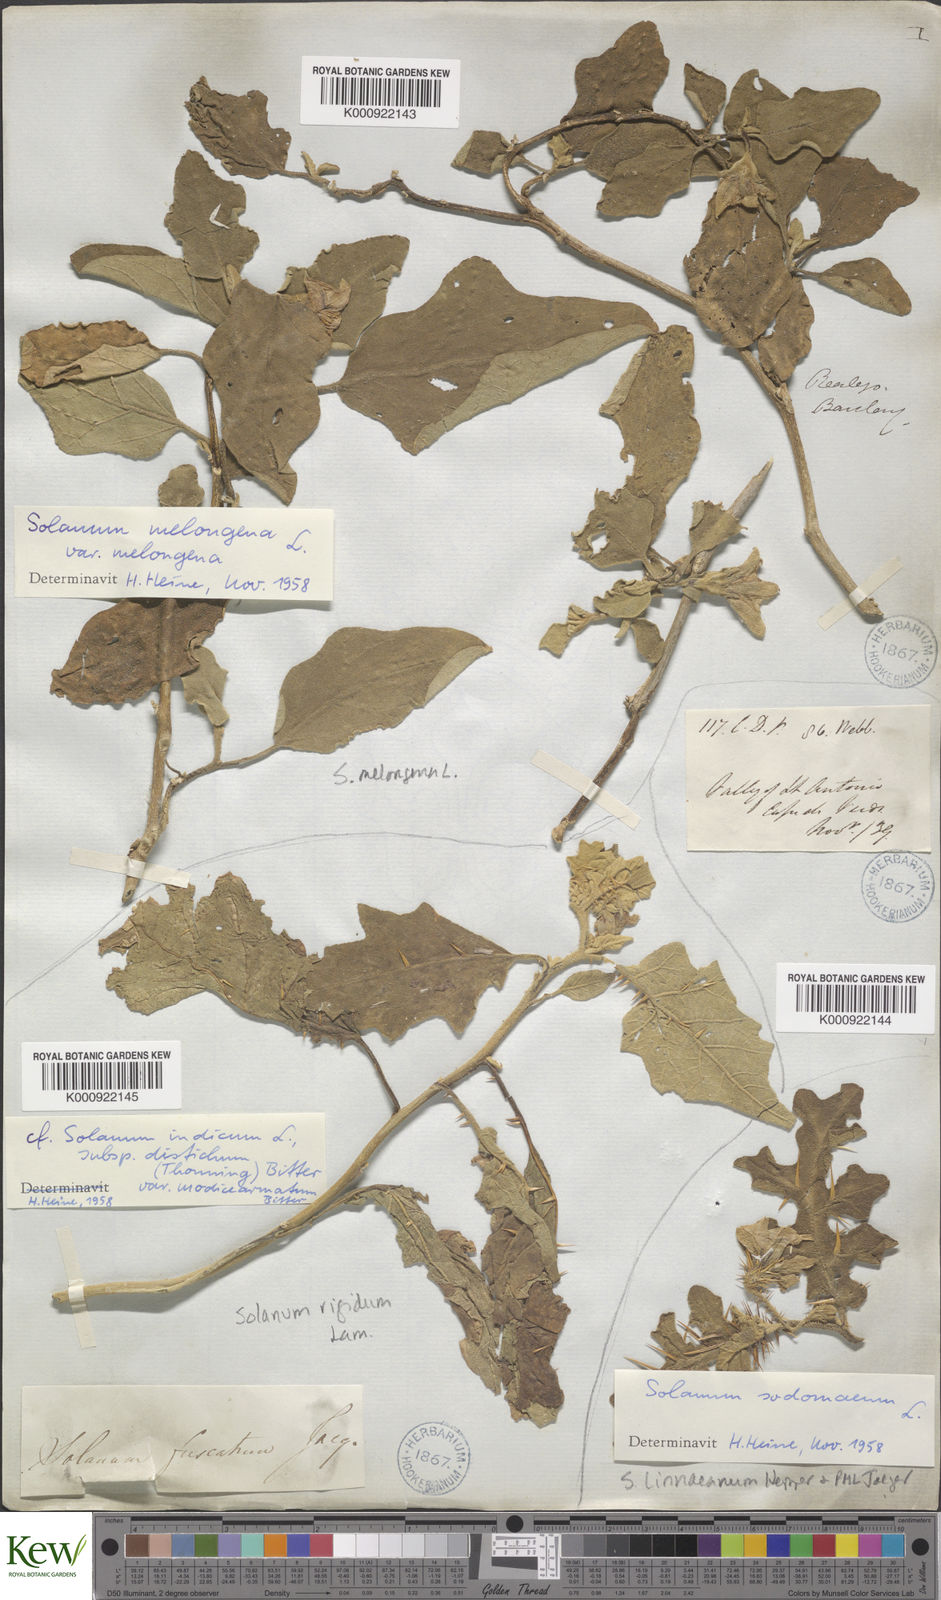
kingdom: Plantae
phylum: Tracheophyta
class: Magnoliopsida
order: Solanales
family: Solanaceae
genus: Solanum
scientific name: Solanum rigidum
